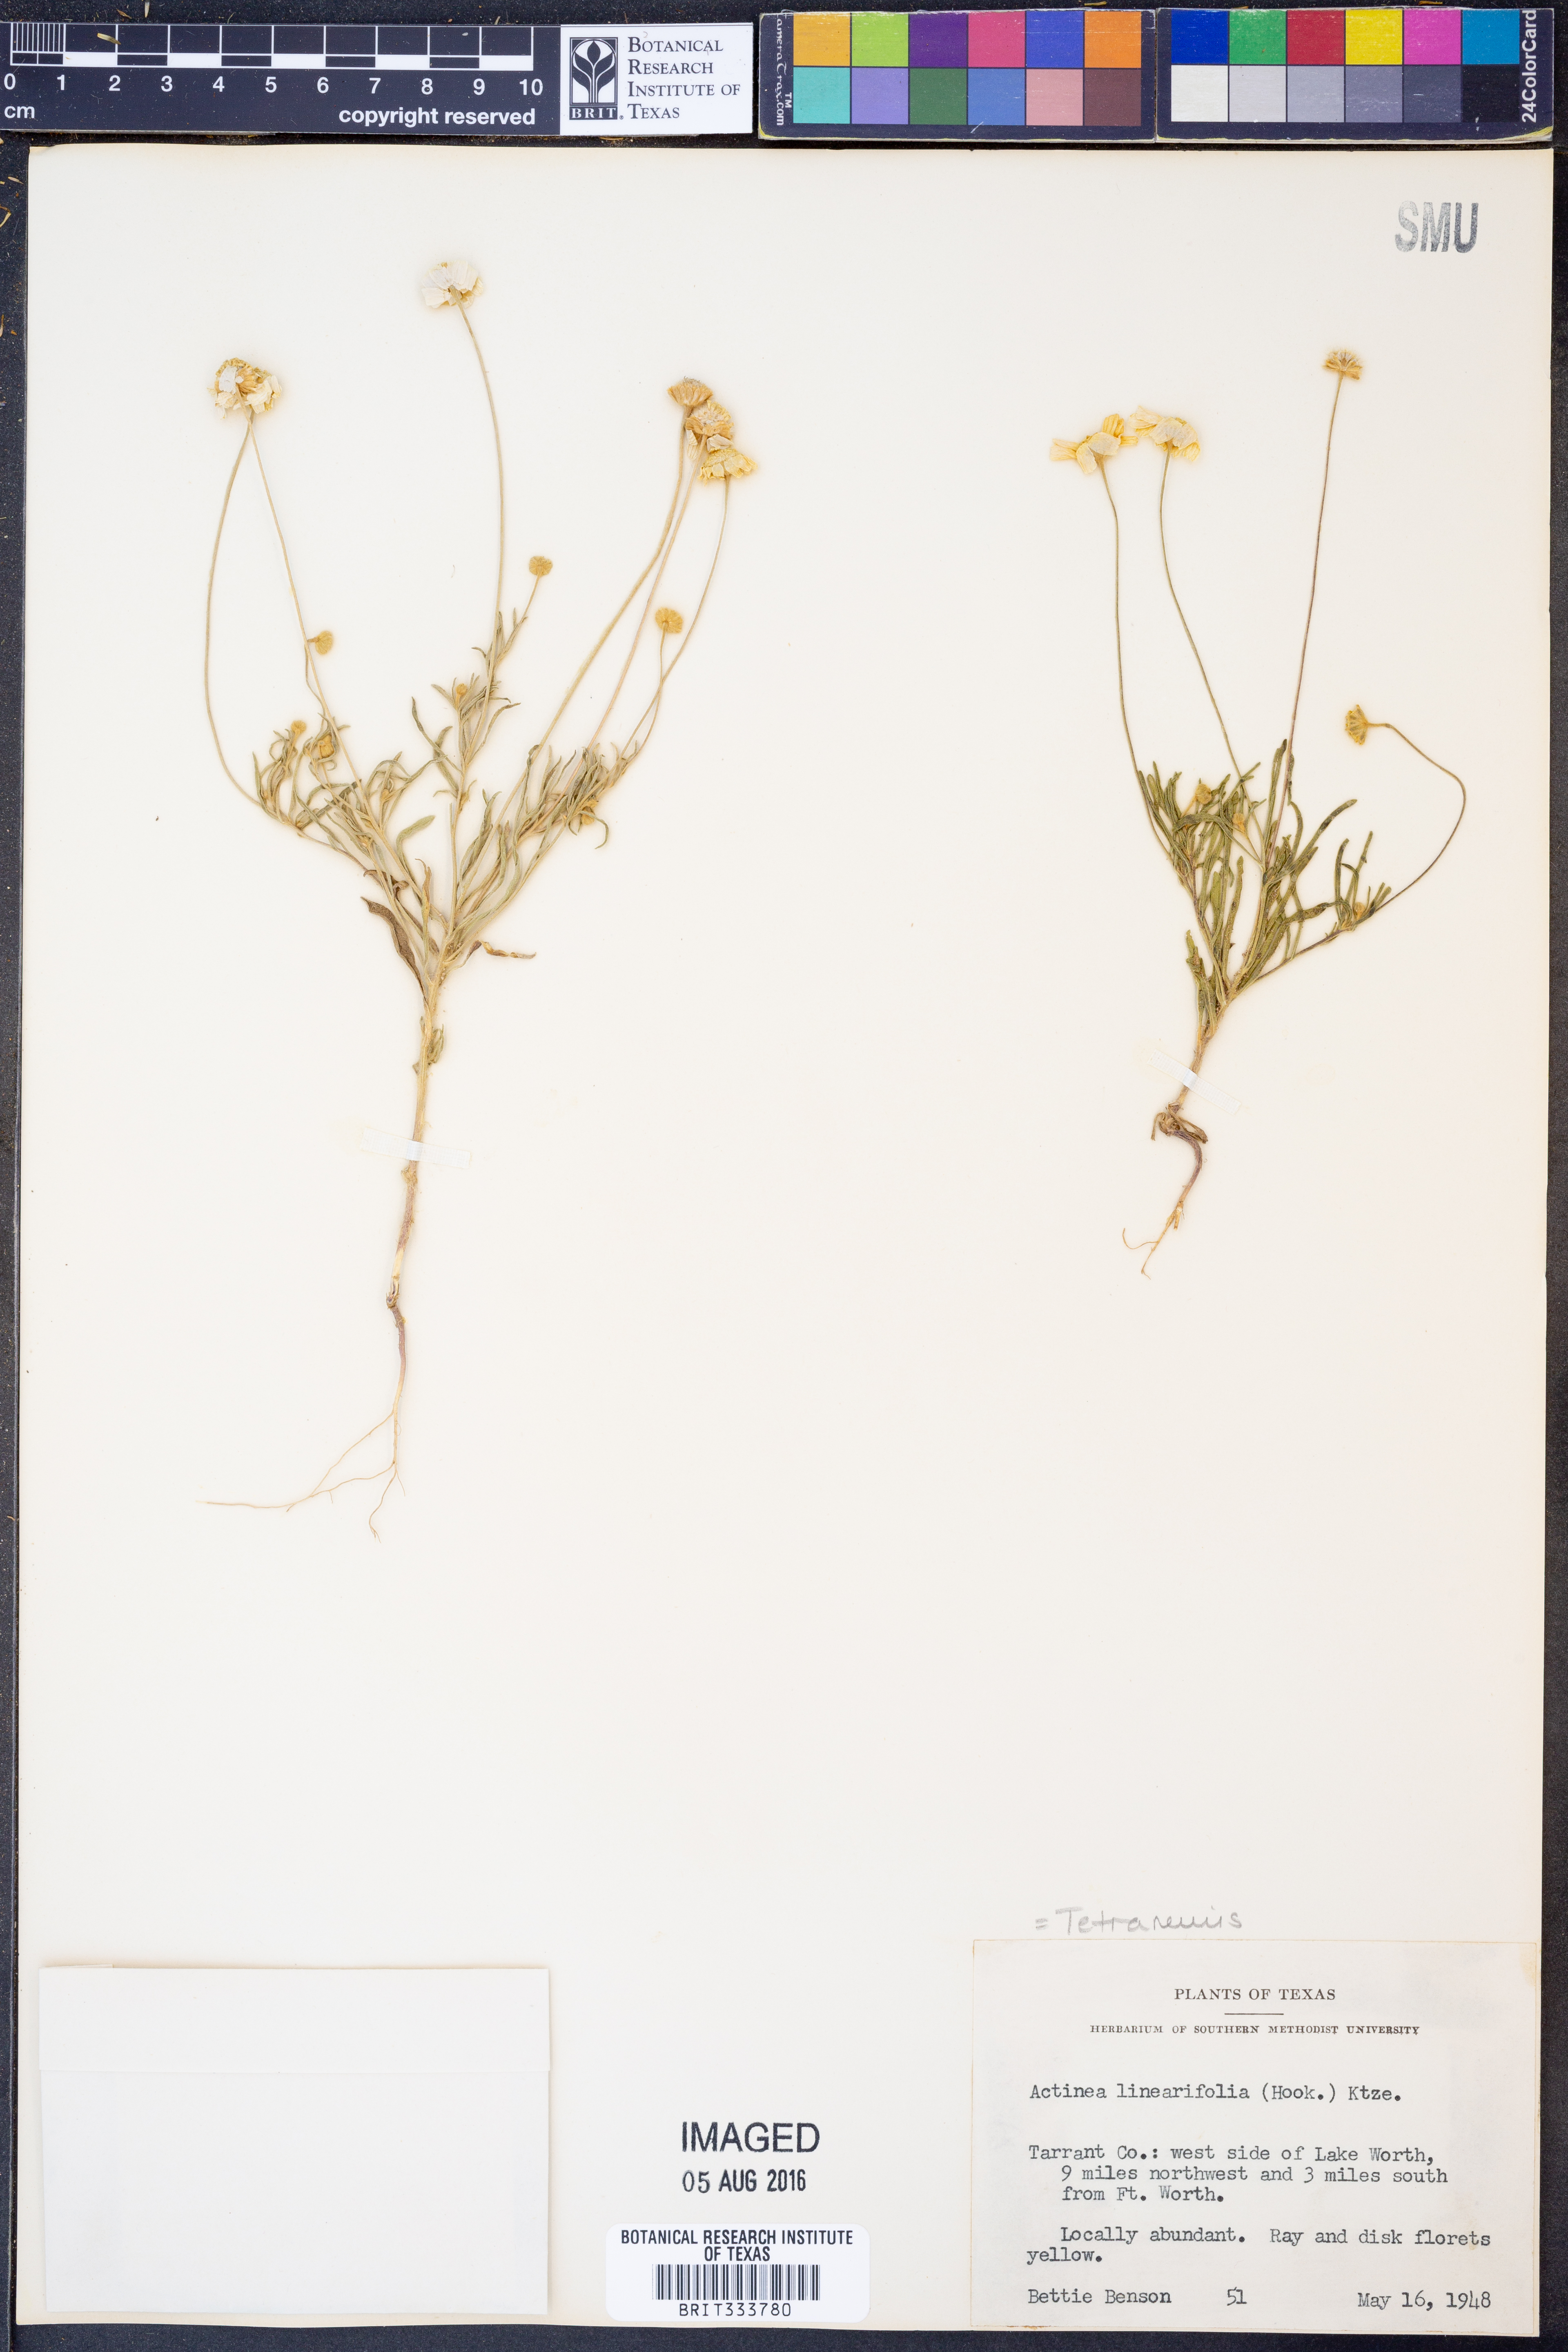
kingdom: Plantae
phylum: Tracheophyta
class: Magnoliopsida
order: Asterales
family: Asteraceae
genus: Tetraneuris
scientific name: Tetraneuris linearifolia
